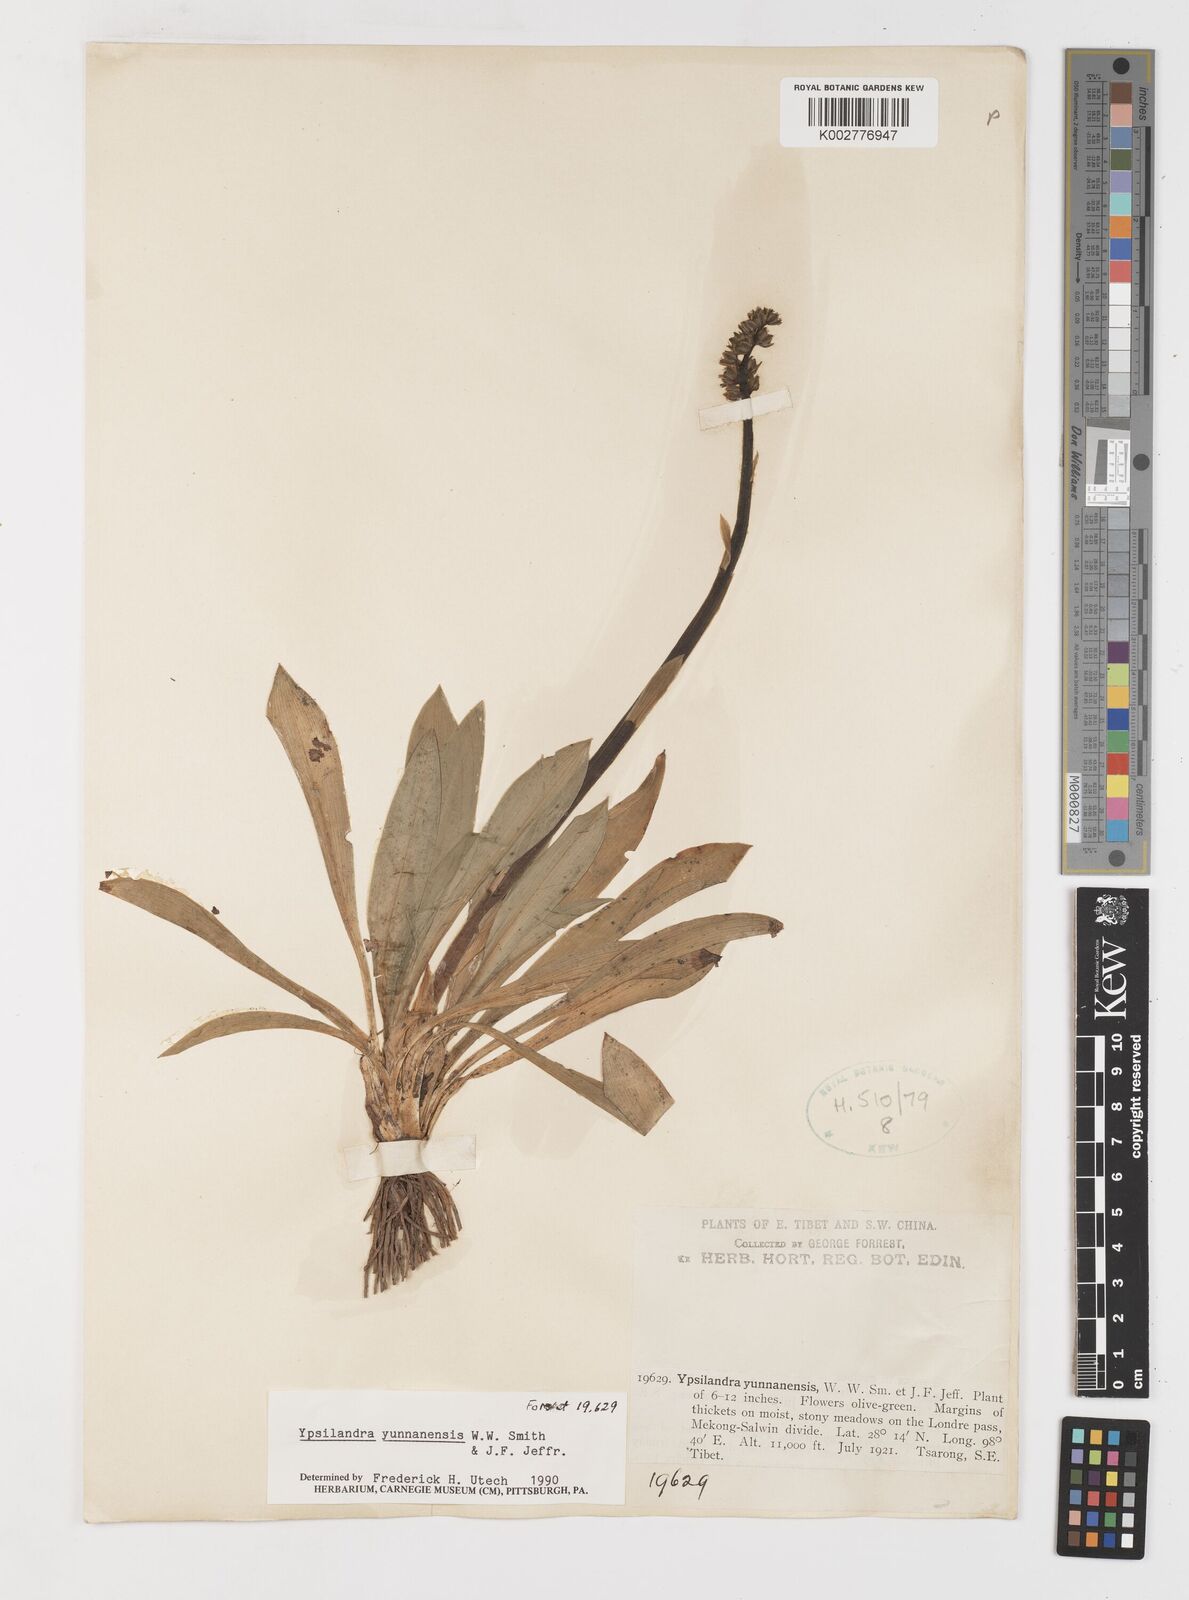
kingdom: Plantae
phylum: Tracheophyta
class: Liliopsida
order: Liliales
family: Melanthiaceae
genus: Helonias
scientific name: Helonias yunnanensis
